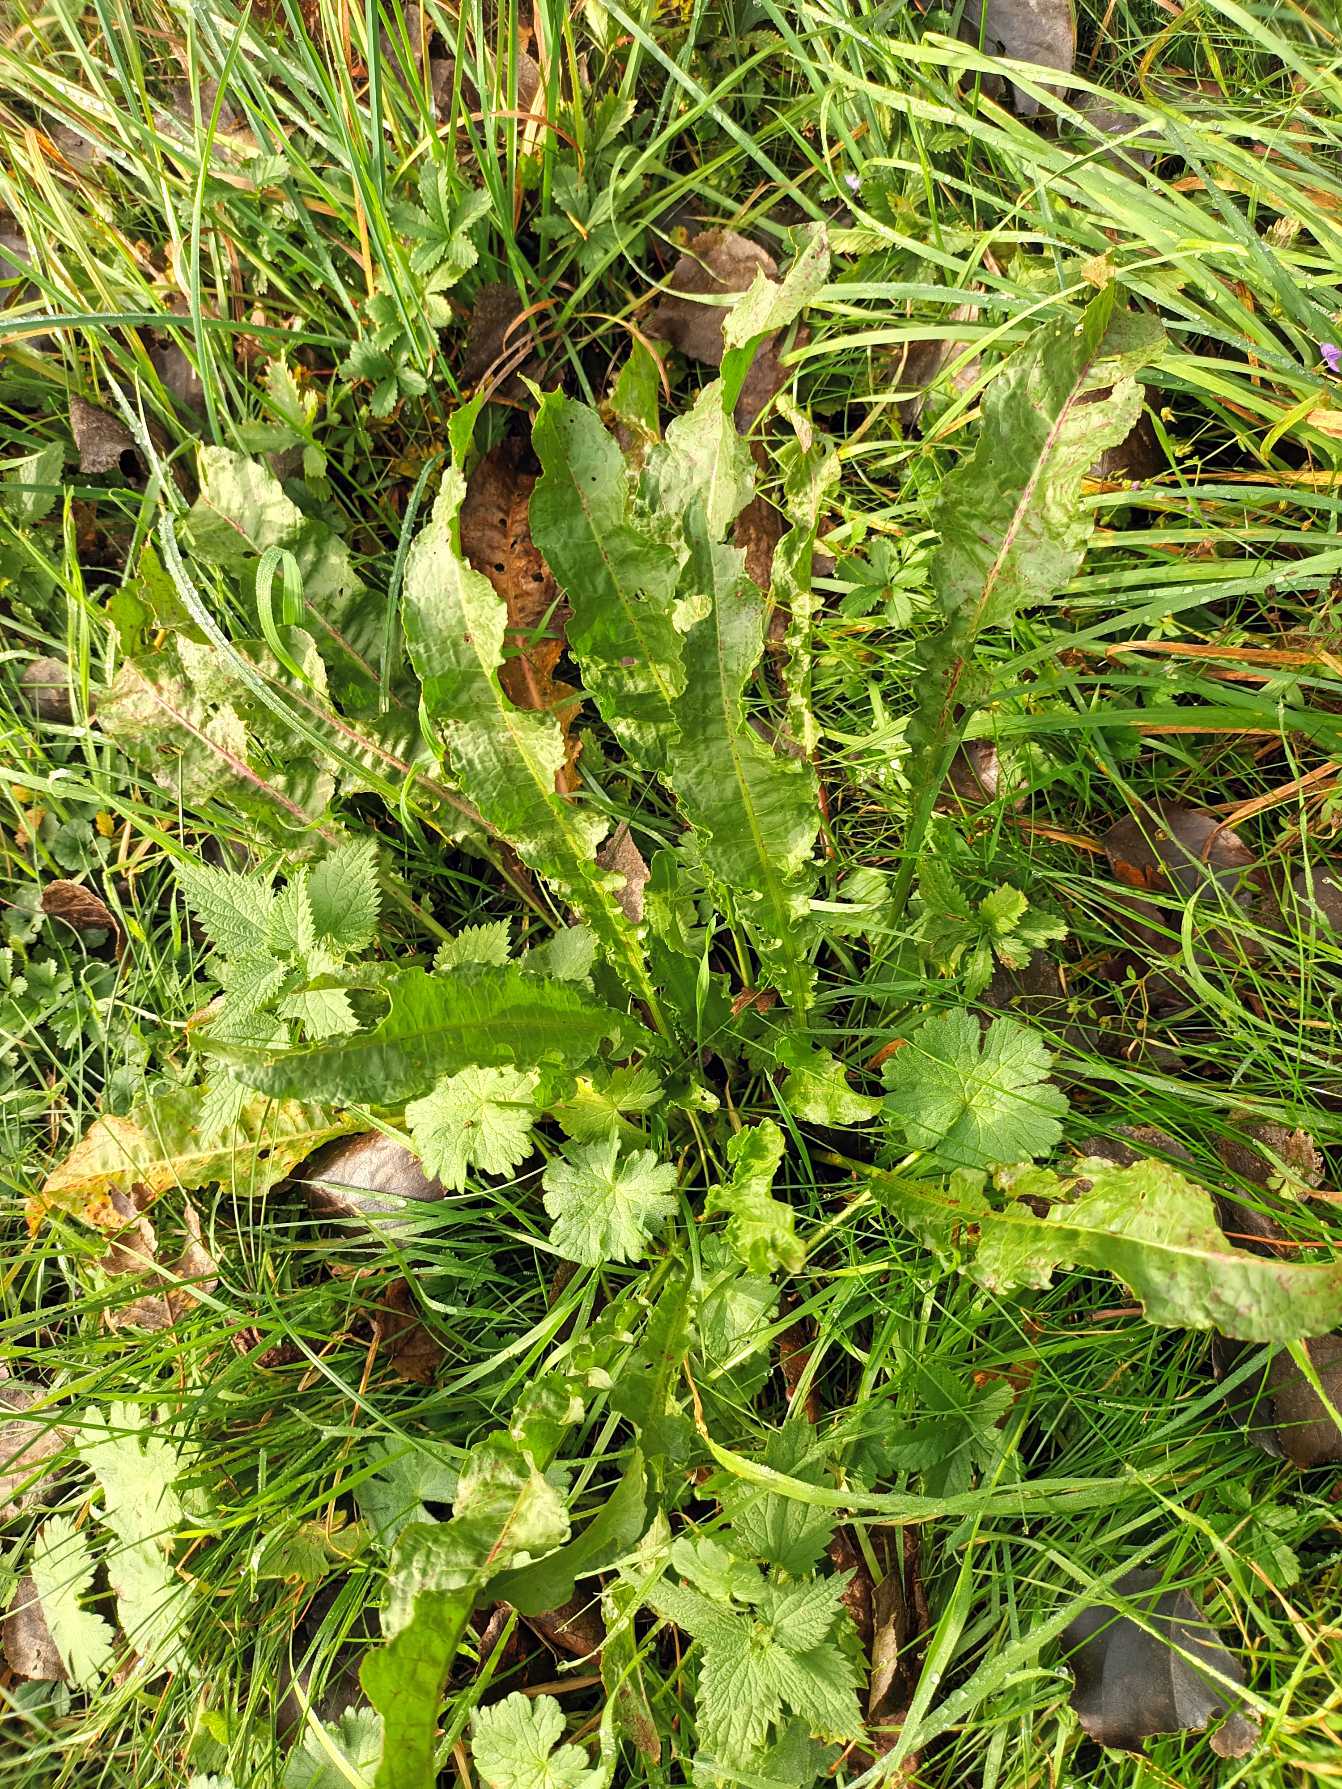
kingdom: Plantae
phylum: Tracheophyta
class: Magnoliopsida
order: Caryophyllales
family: Polygonaceae
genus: Rumex
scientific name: Rumex crispus
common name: Kruset skræppe
